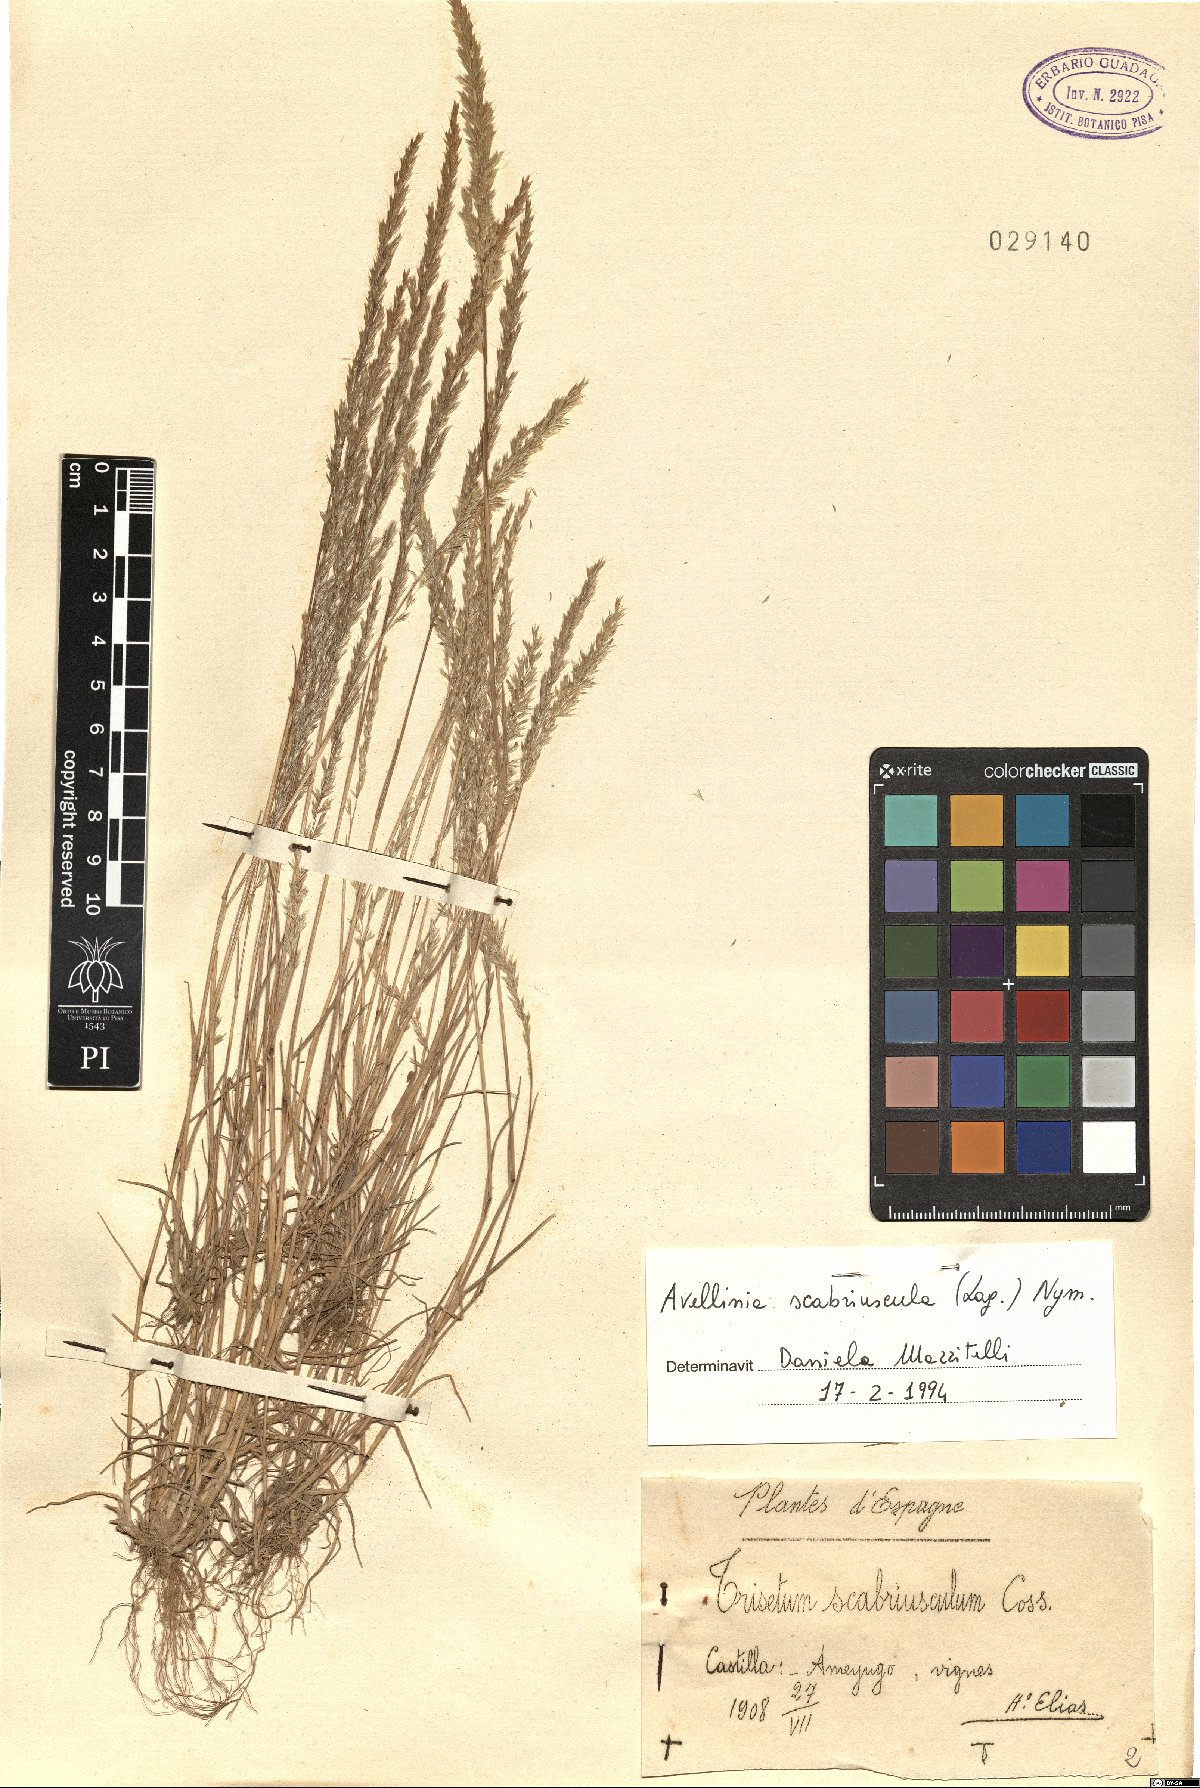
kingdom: Plantae
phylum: Tracheophyta
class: Liliopsida
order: Poales
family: Poaceae
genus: Trisetaria
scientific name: Trisetaria scabriuscula
